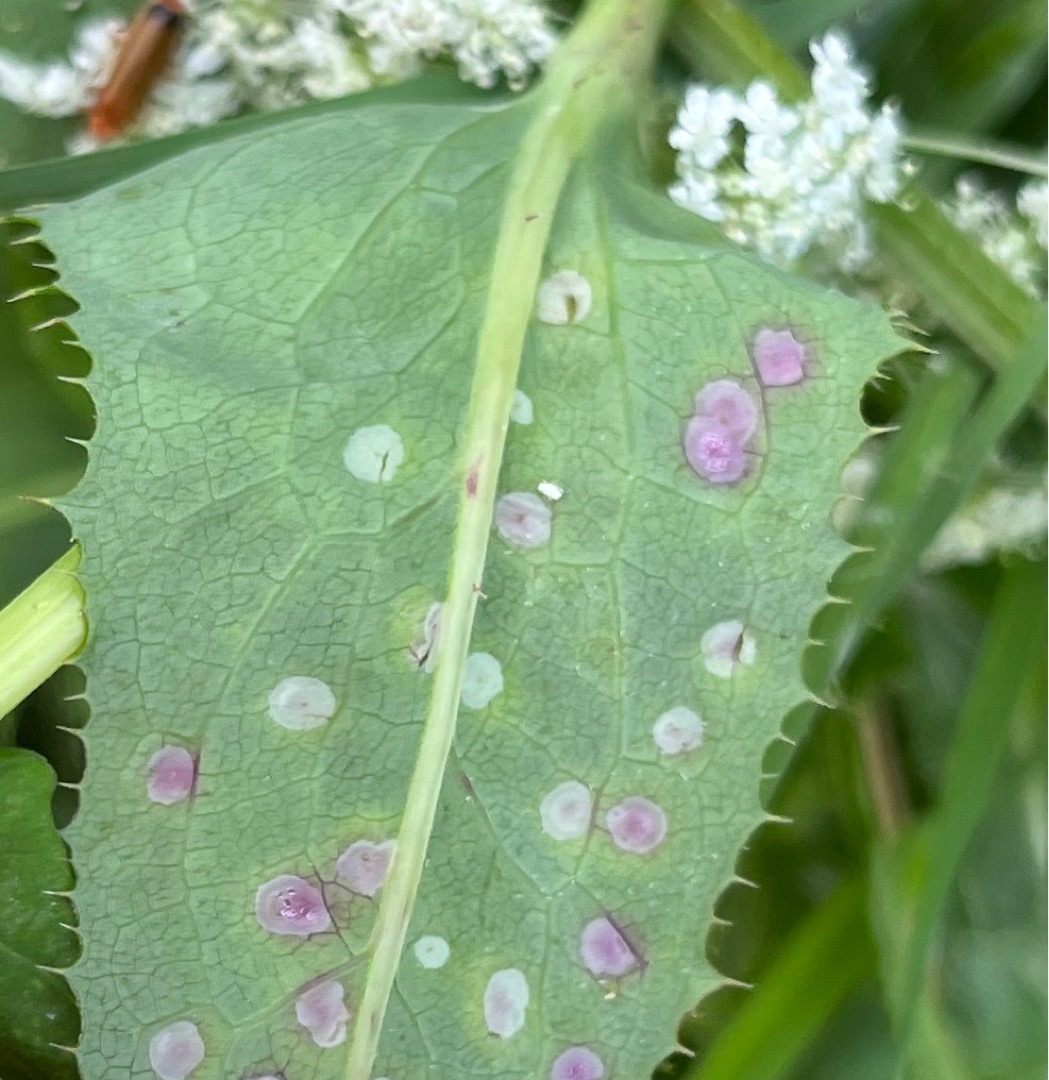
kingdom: Animalia
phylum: Arthropoda
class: Insecta
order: Diptera
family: Cecidomyiidae
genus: Cystiphora
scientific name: Cystiphora sonchi
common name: Svineblæregalmyg
